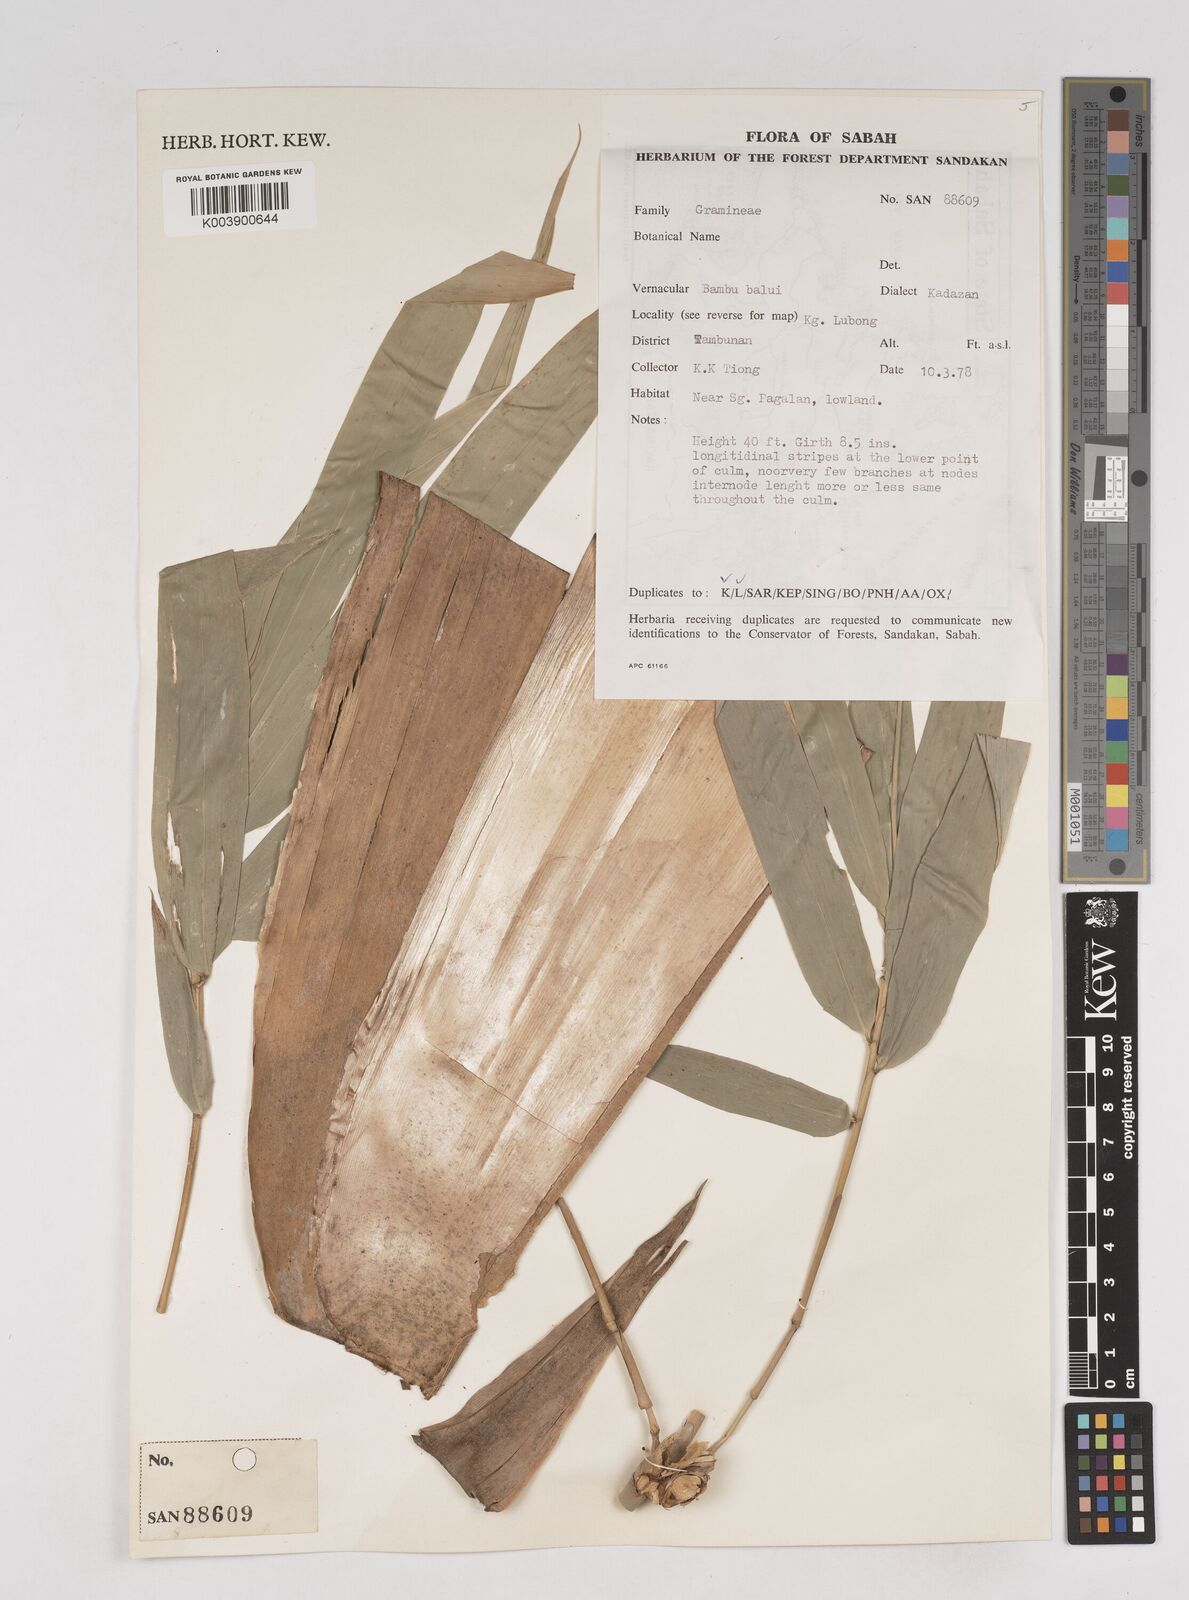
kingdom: Plantae
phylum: Tracheophyta
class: Liliopsida
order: Poales
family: Poaceae
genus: Gigantochloa
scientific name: Gigantochloa
